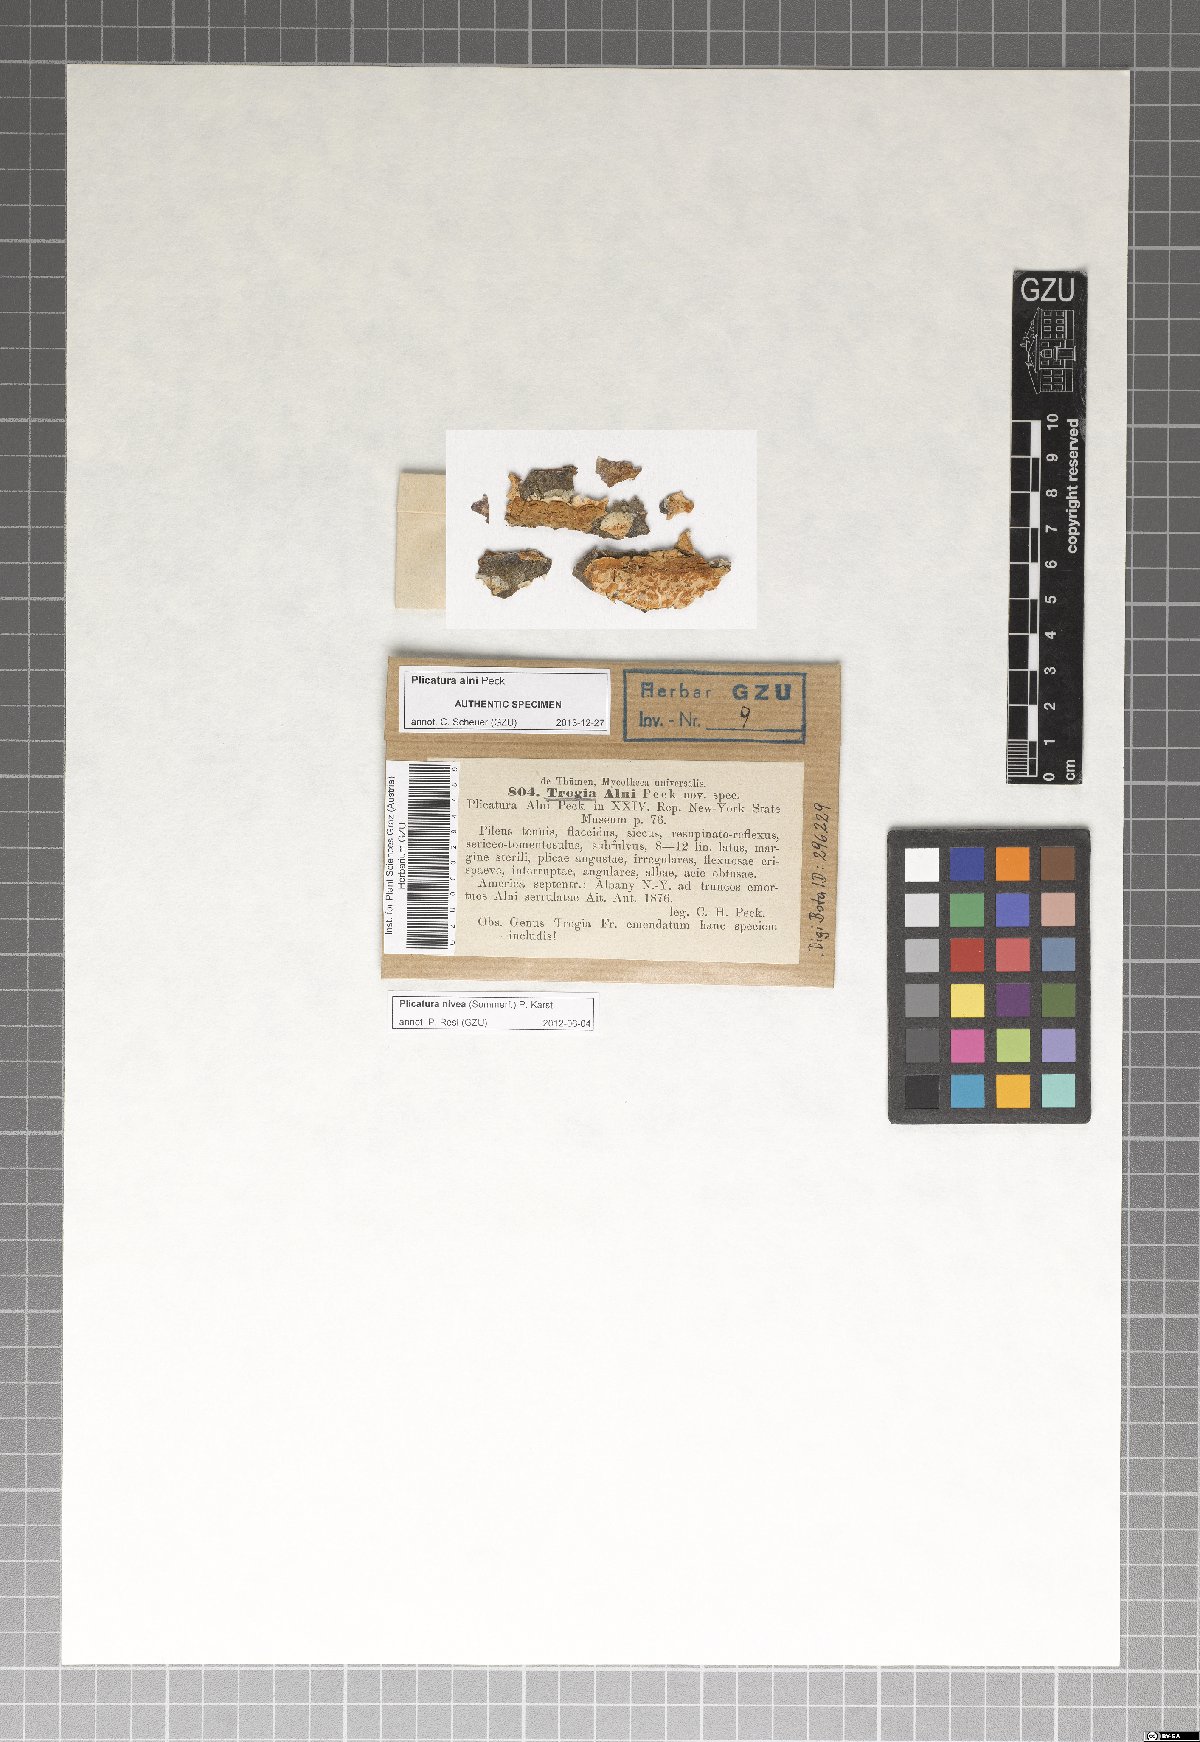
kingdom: Fungi
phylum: Basidiomycota
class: Agaricomycetes
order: Agaricales
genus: Plicatura
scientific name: Plicatura nivea
